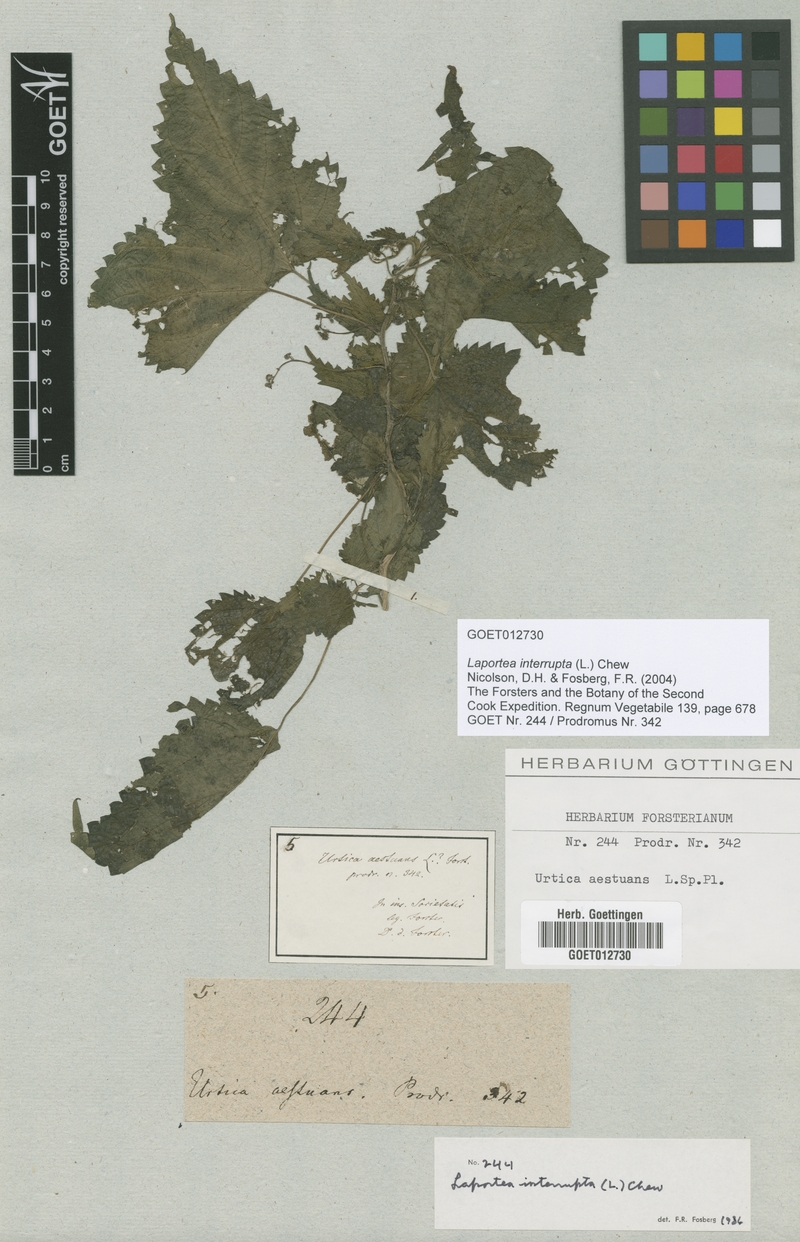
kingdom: Plantae
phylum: Tracheophyta
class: Magnoliopsida
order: Rosales
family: Urticaceae
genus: Laportea
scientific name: Laportea interrupta
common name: Hawaiian wood-nettle
